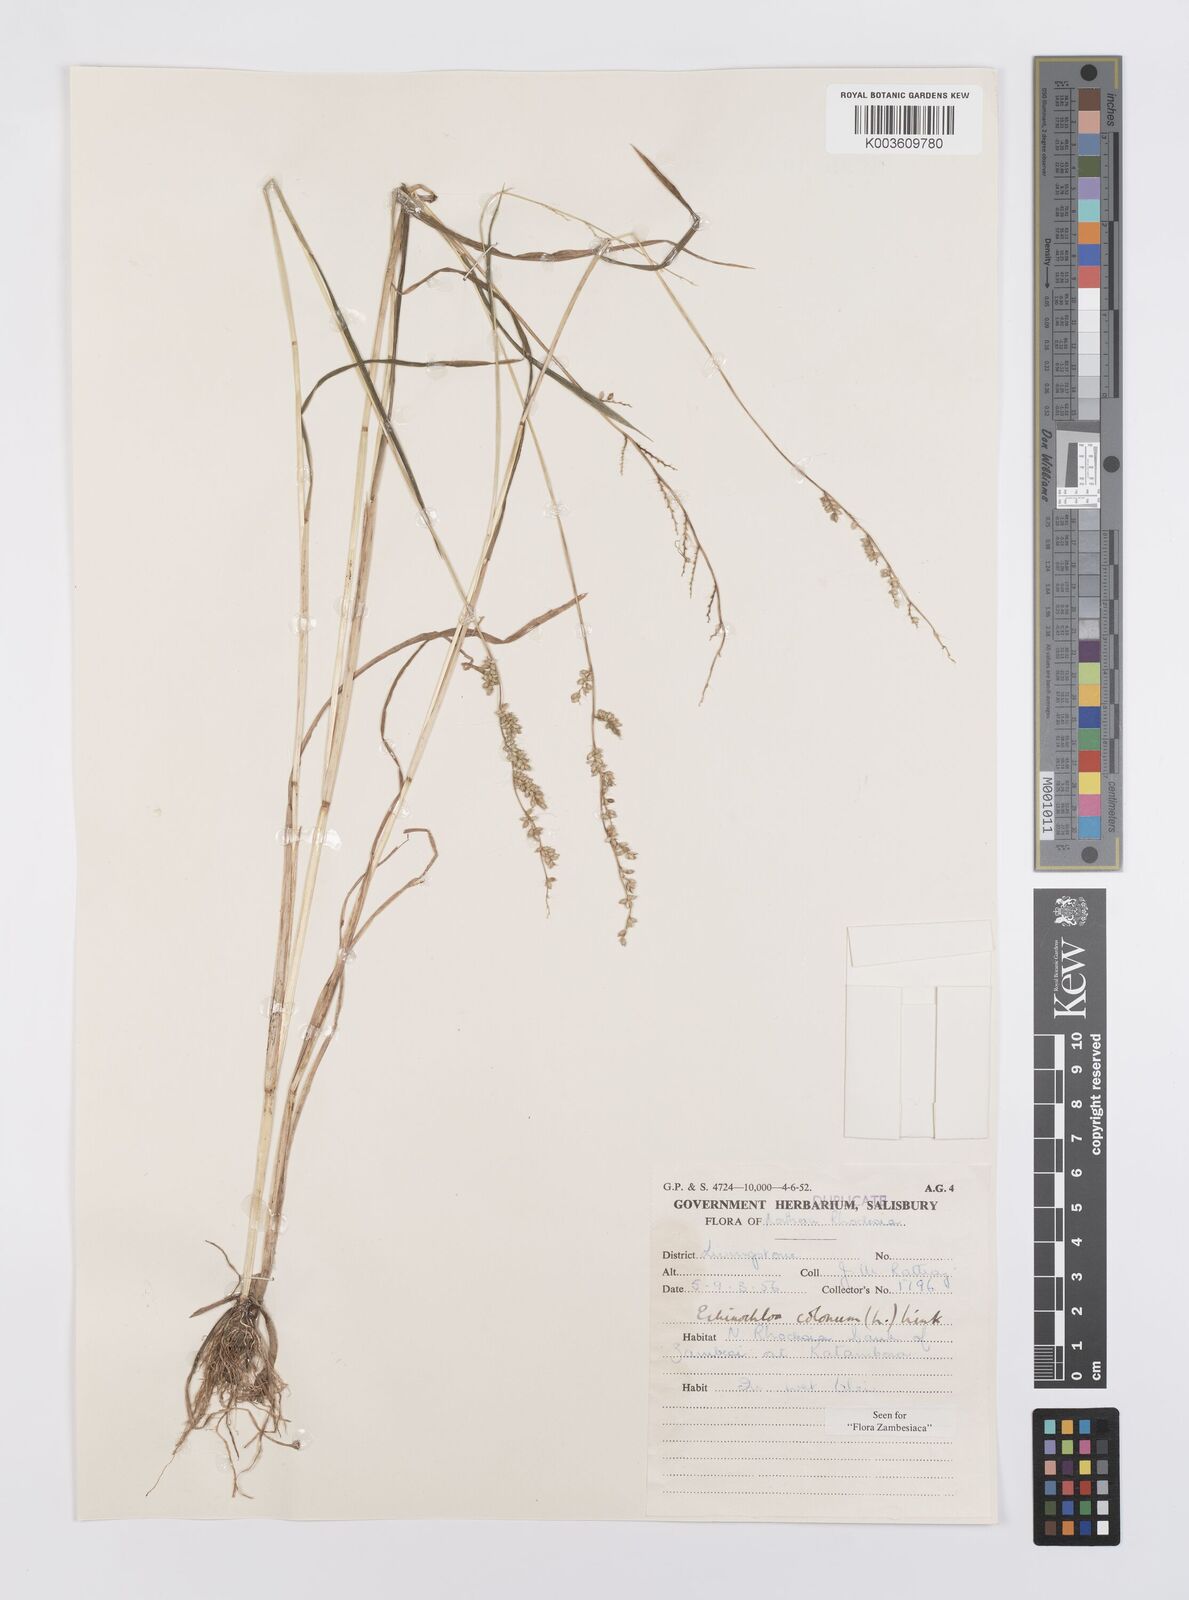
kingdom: Plantae
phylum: Tracheophyta
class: Liliopsida
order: Poales
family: Poaceae
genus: Echinochloa
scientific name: Echinochloa colonum
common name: Jungle rice
